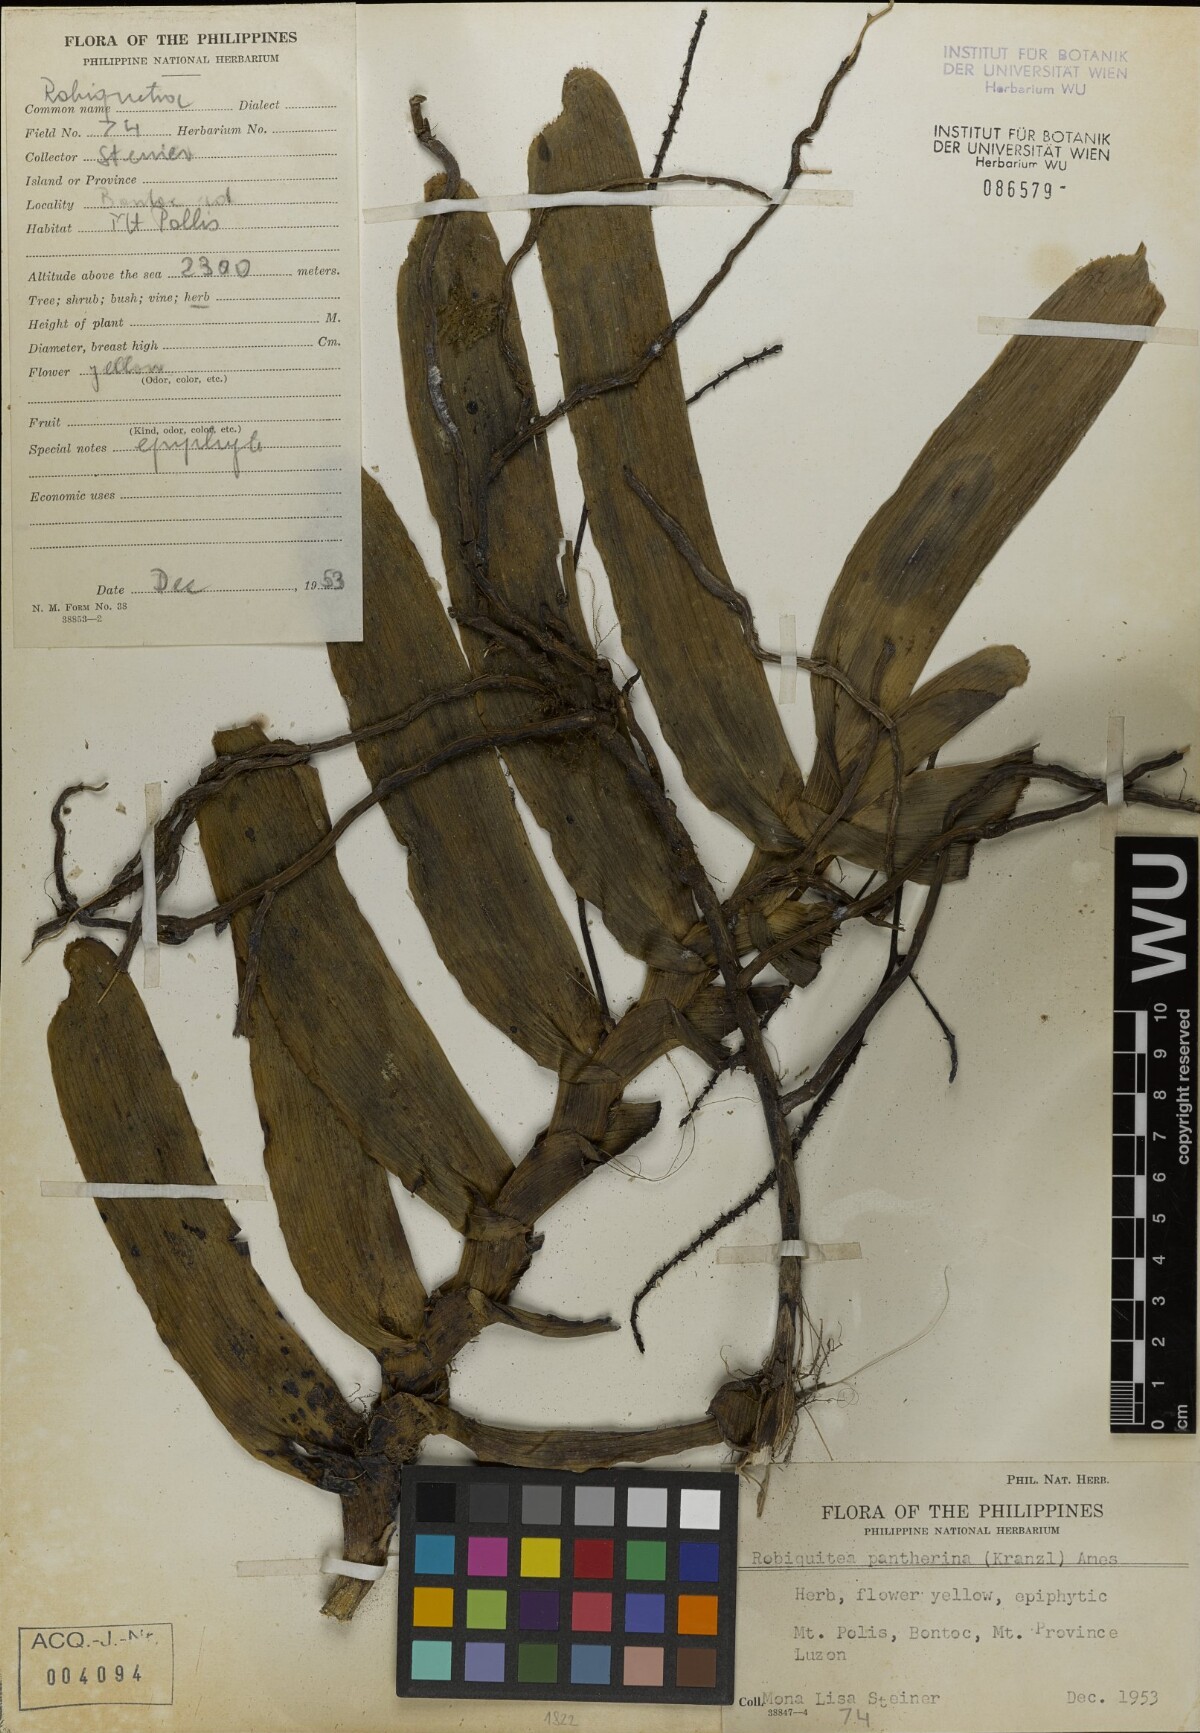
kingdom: Plantae
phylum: Tracheophyta
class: Liliopsida
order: Asparagales
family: Orchidaceae
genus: Robiquetia
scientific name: Robiquetia pantherina
